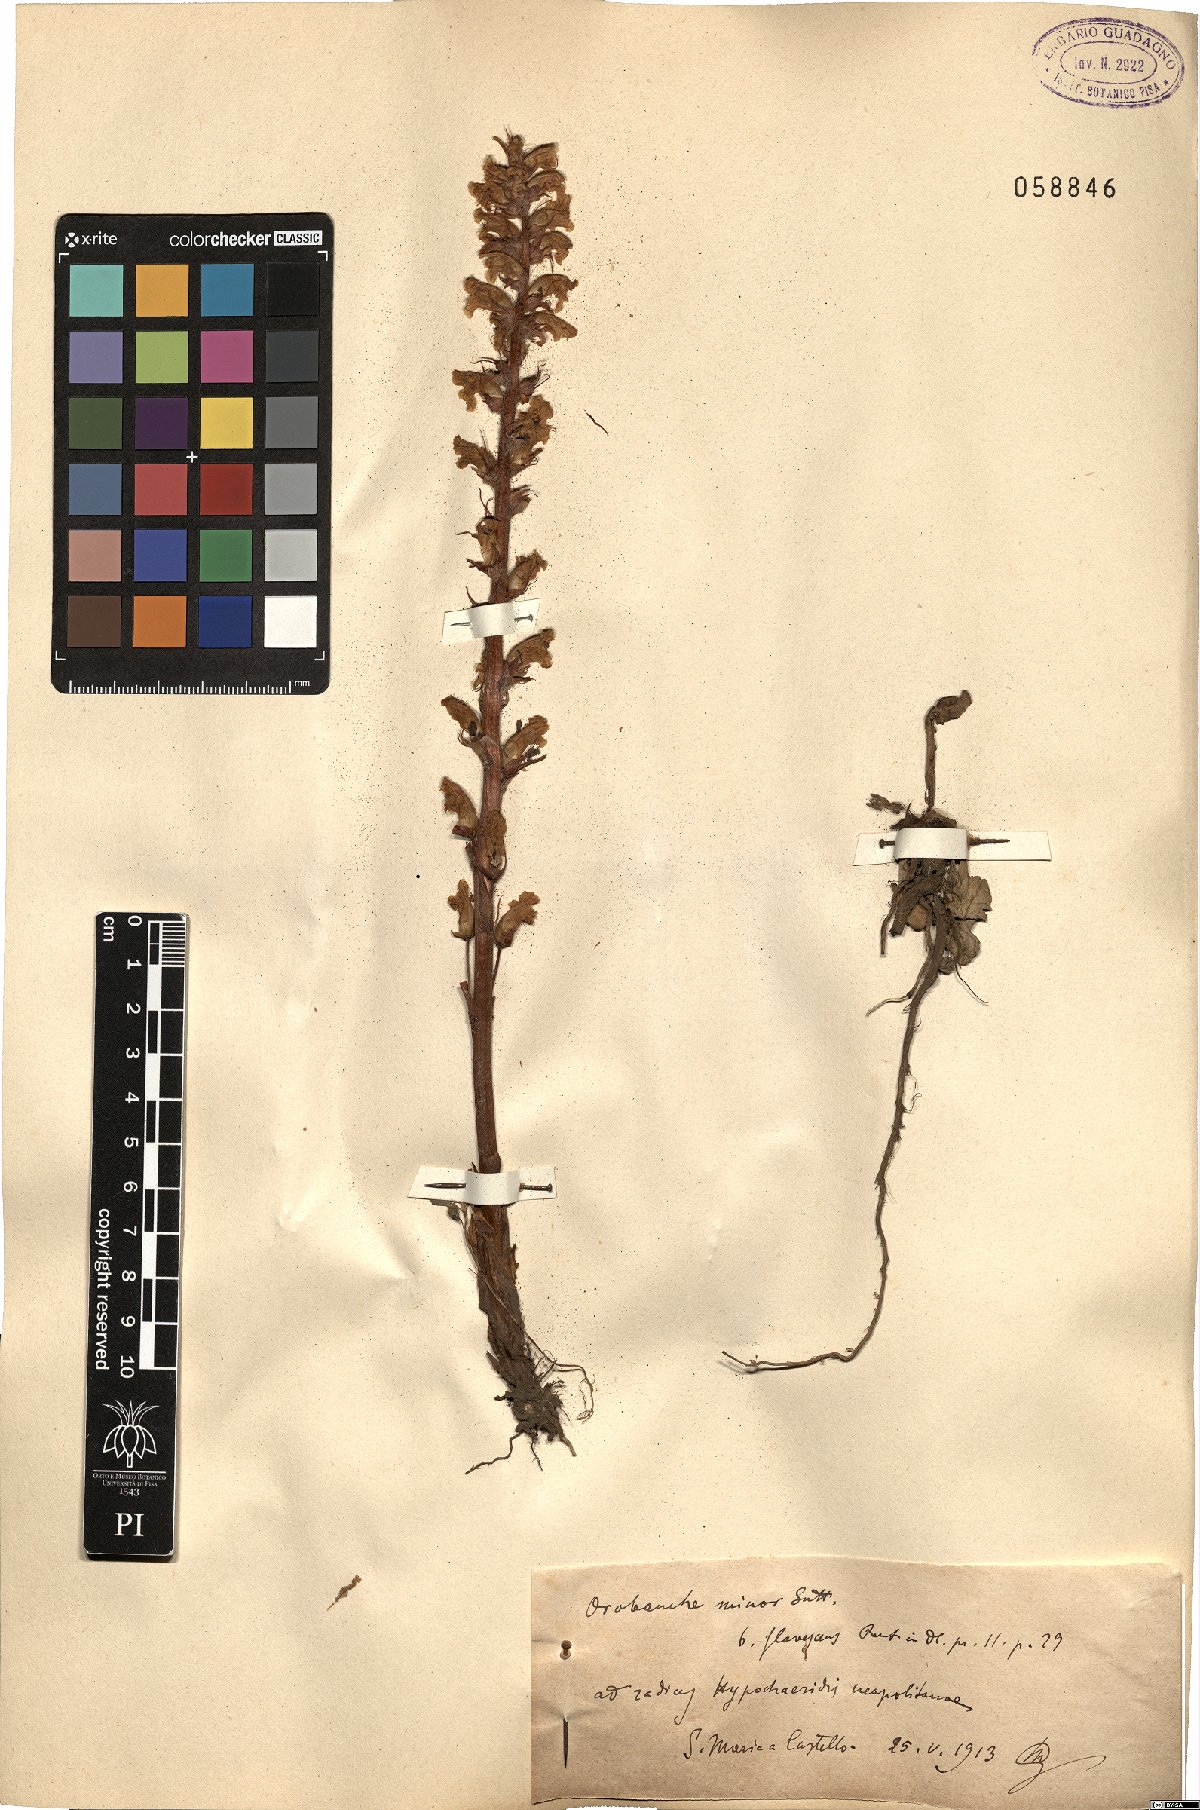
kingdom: Plantae
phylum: Tracheophyta
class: Magnoliopsida
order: Lamiales
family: Orobanchaceae
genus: Orobanche
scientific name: Orobanche minor
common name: Common broomrape
